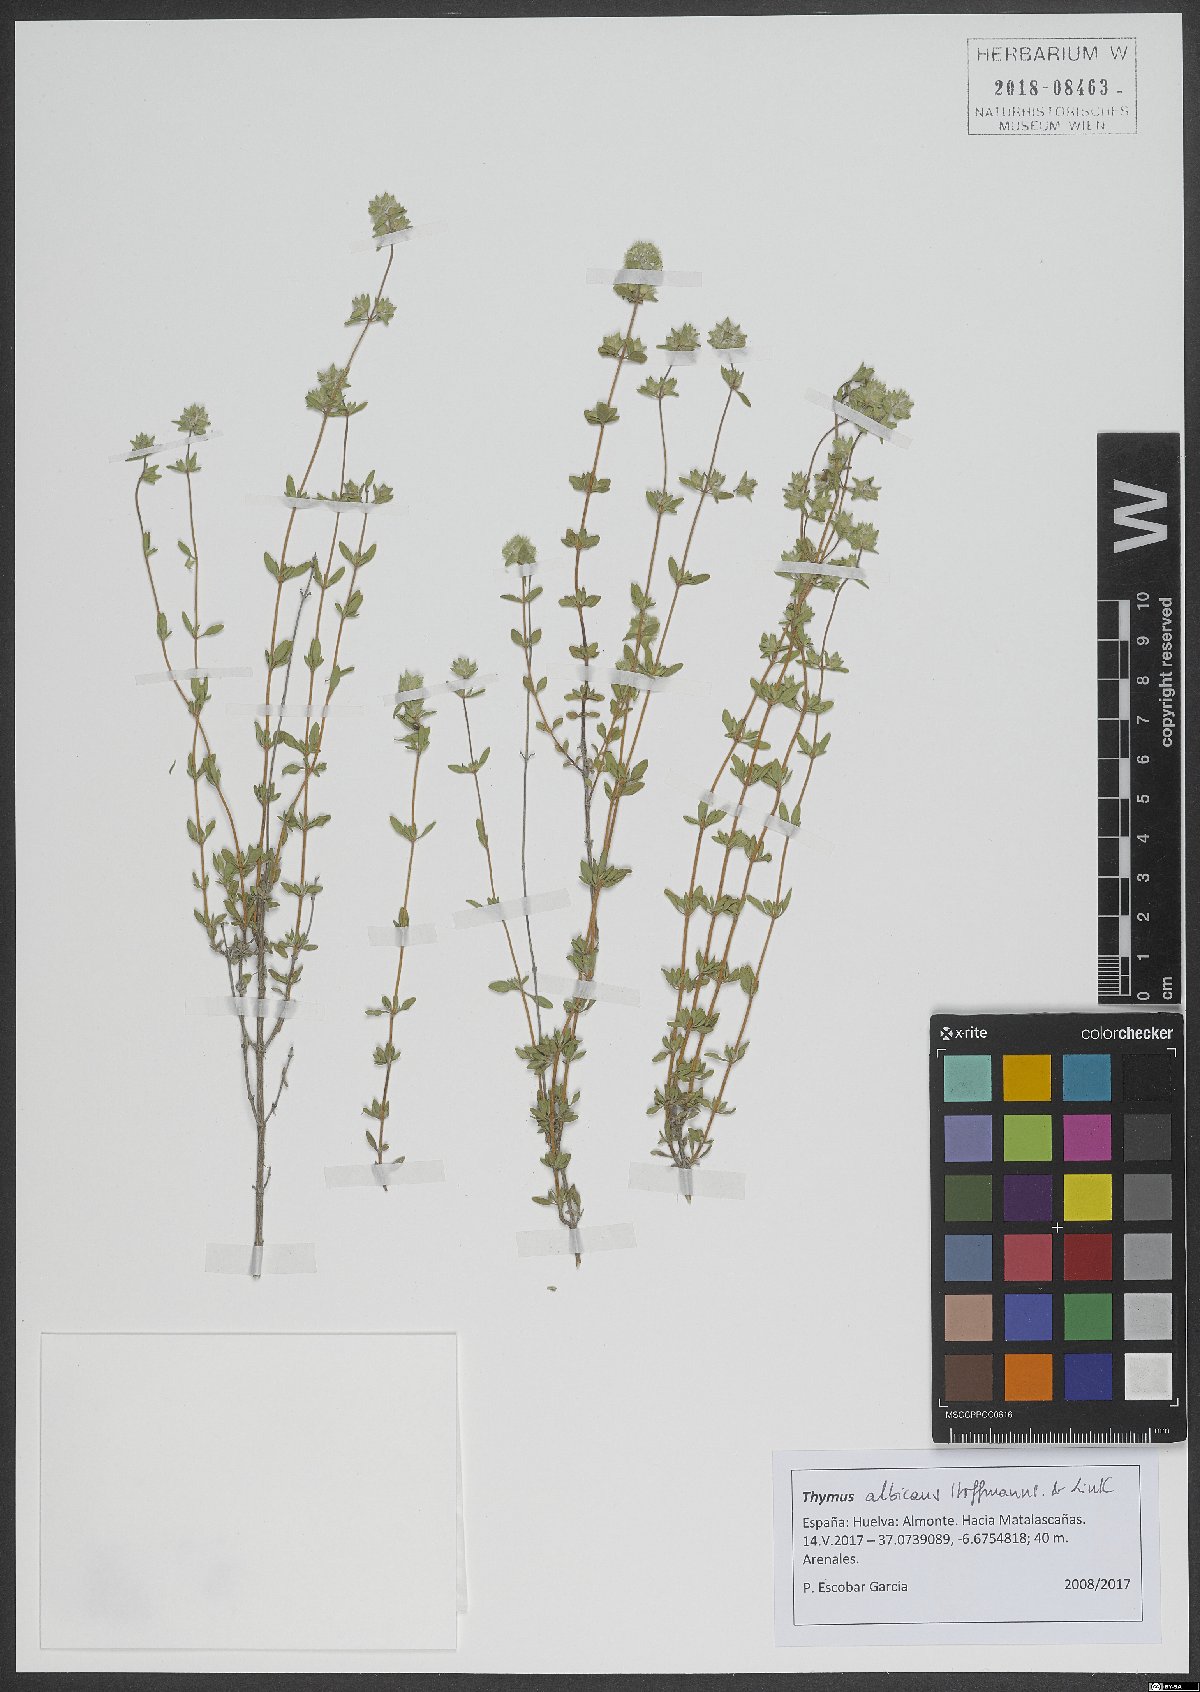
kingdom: Plantae
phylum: Tracheophyta
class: Magnoliopsida
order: Lamiales
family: Lamiaceae
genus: Thymus
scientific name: Thymus albicans
